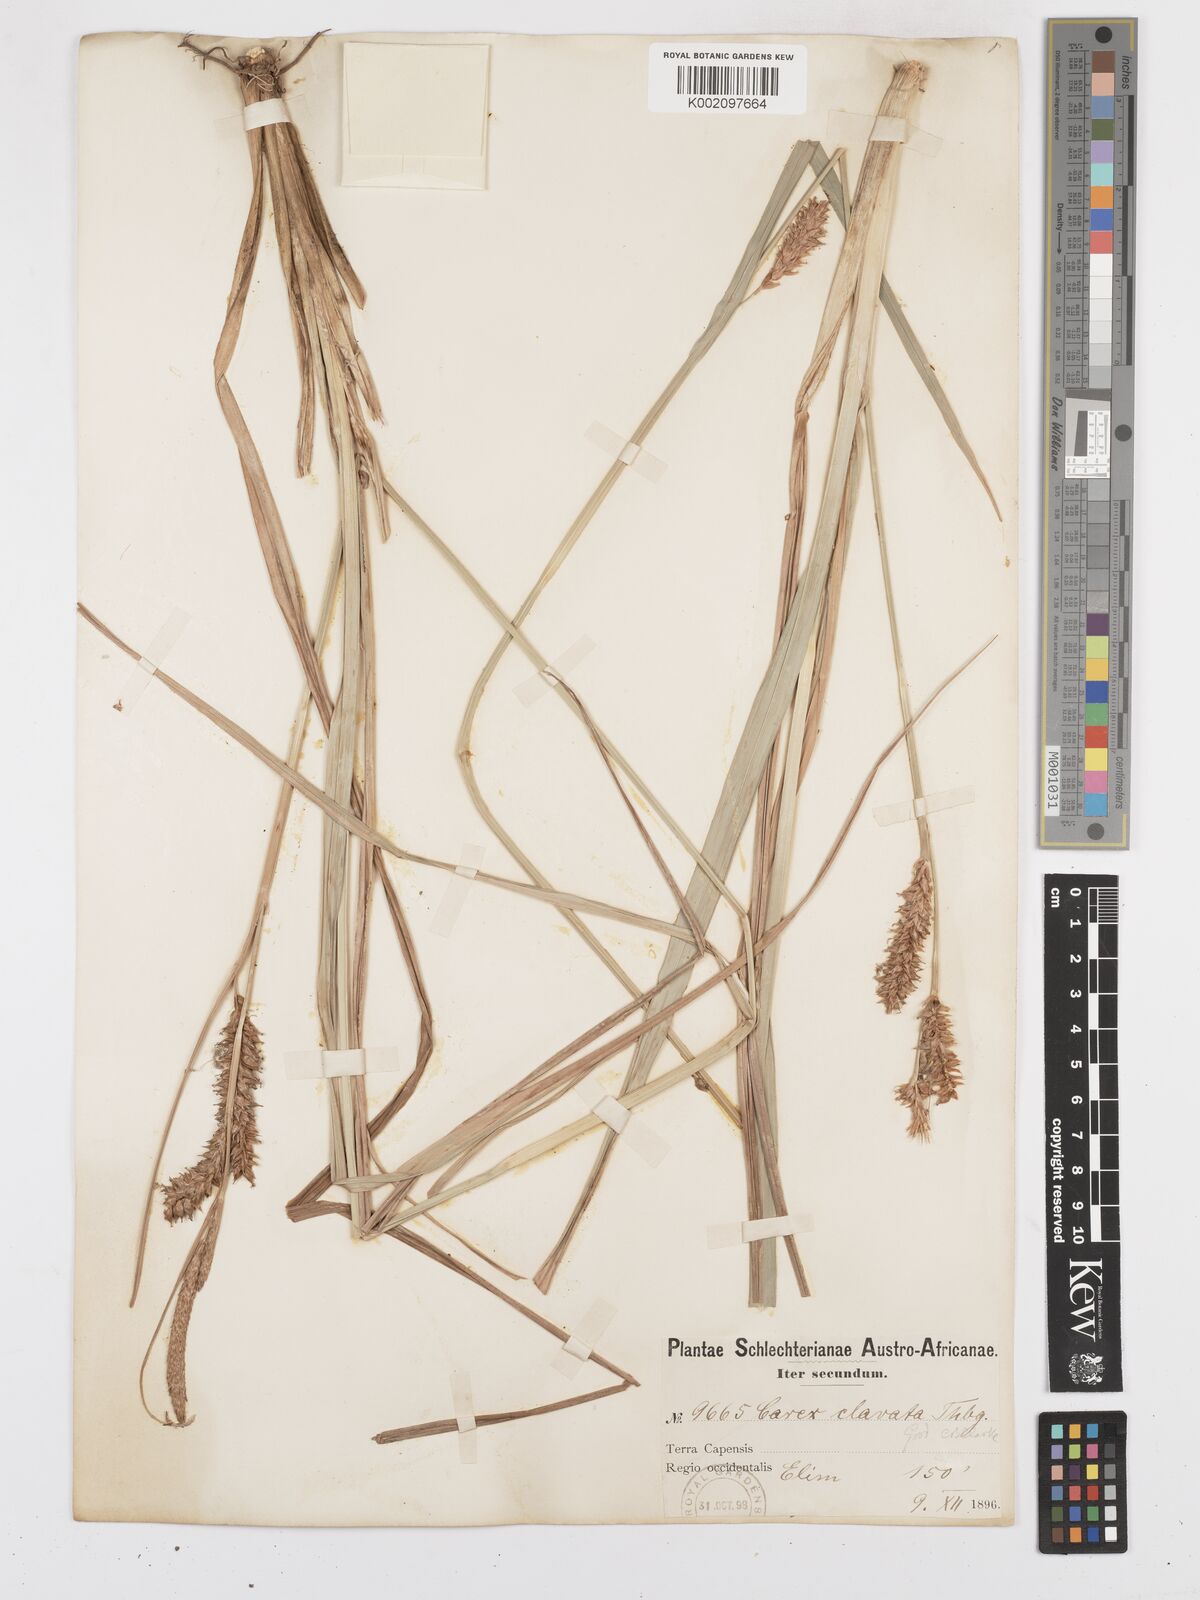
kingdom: Plantae
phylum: Tracheophyta
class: Liliopsida
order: Poales
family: Cyperaceae
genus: Carex
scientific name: Carex clavata
